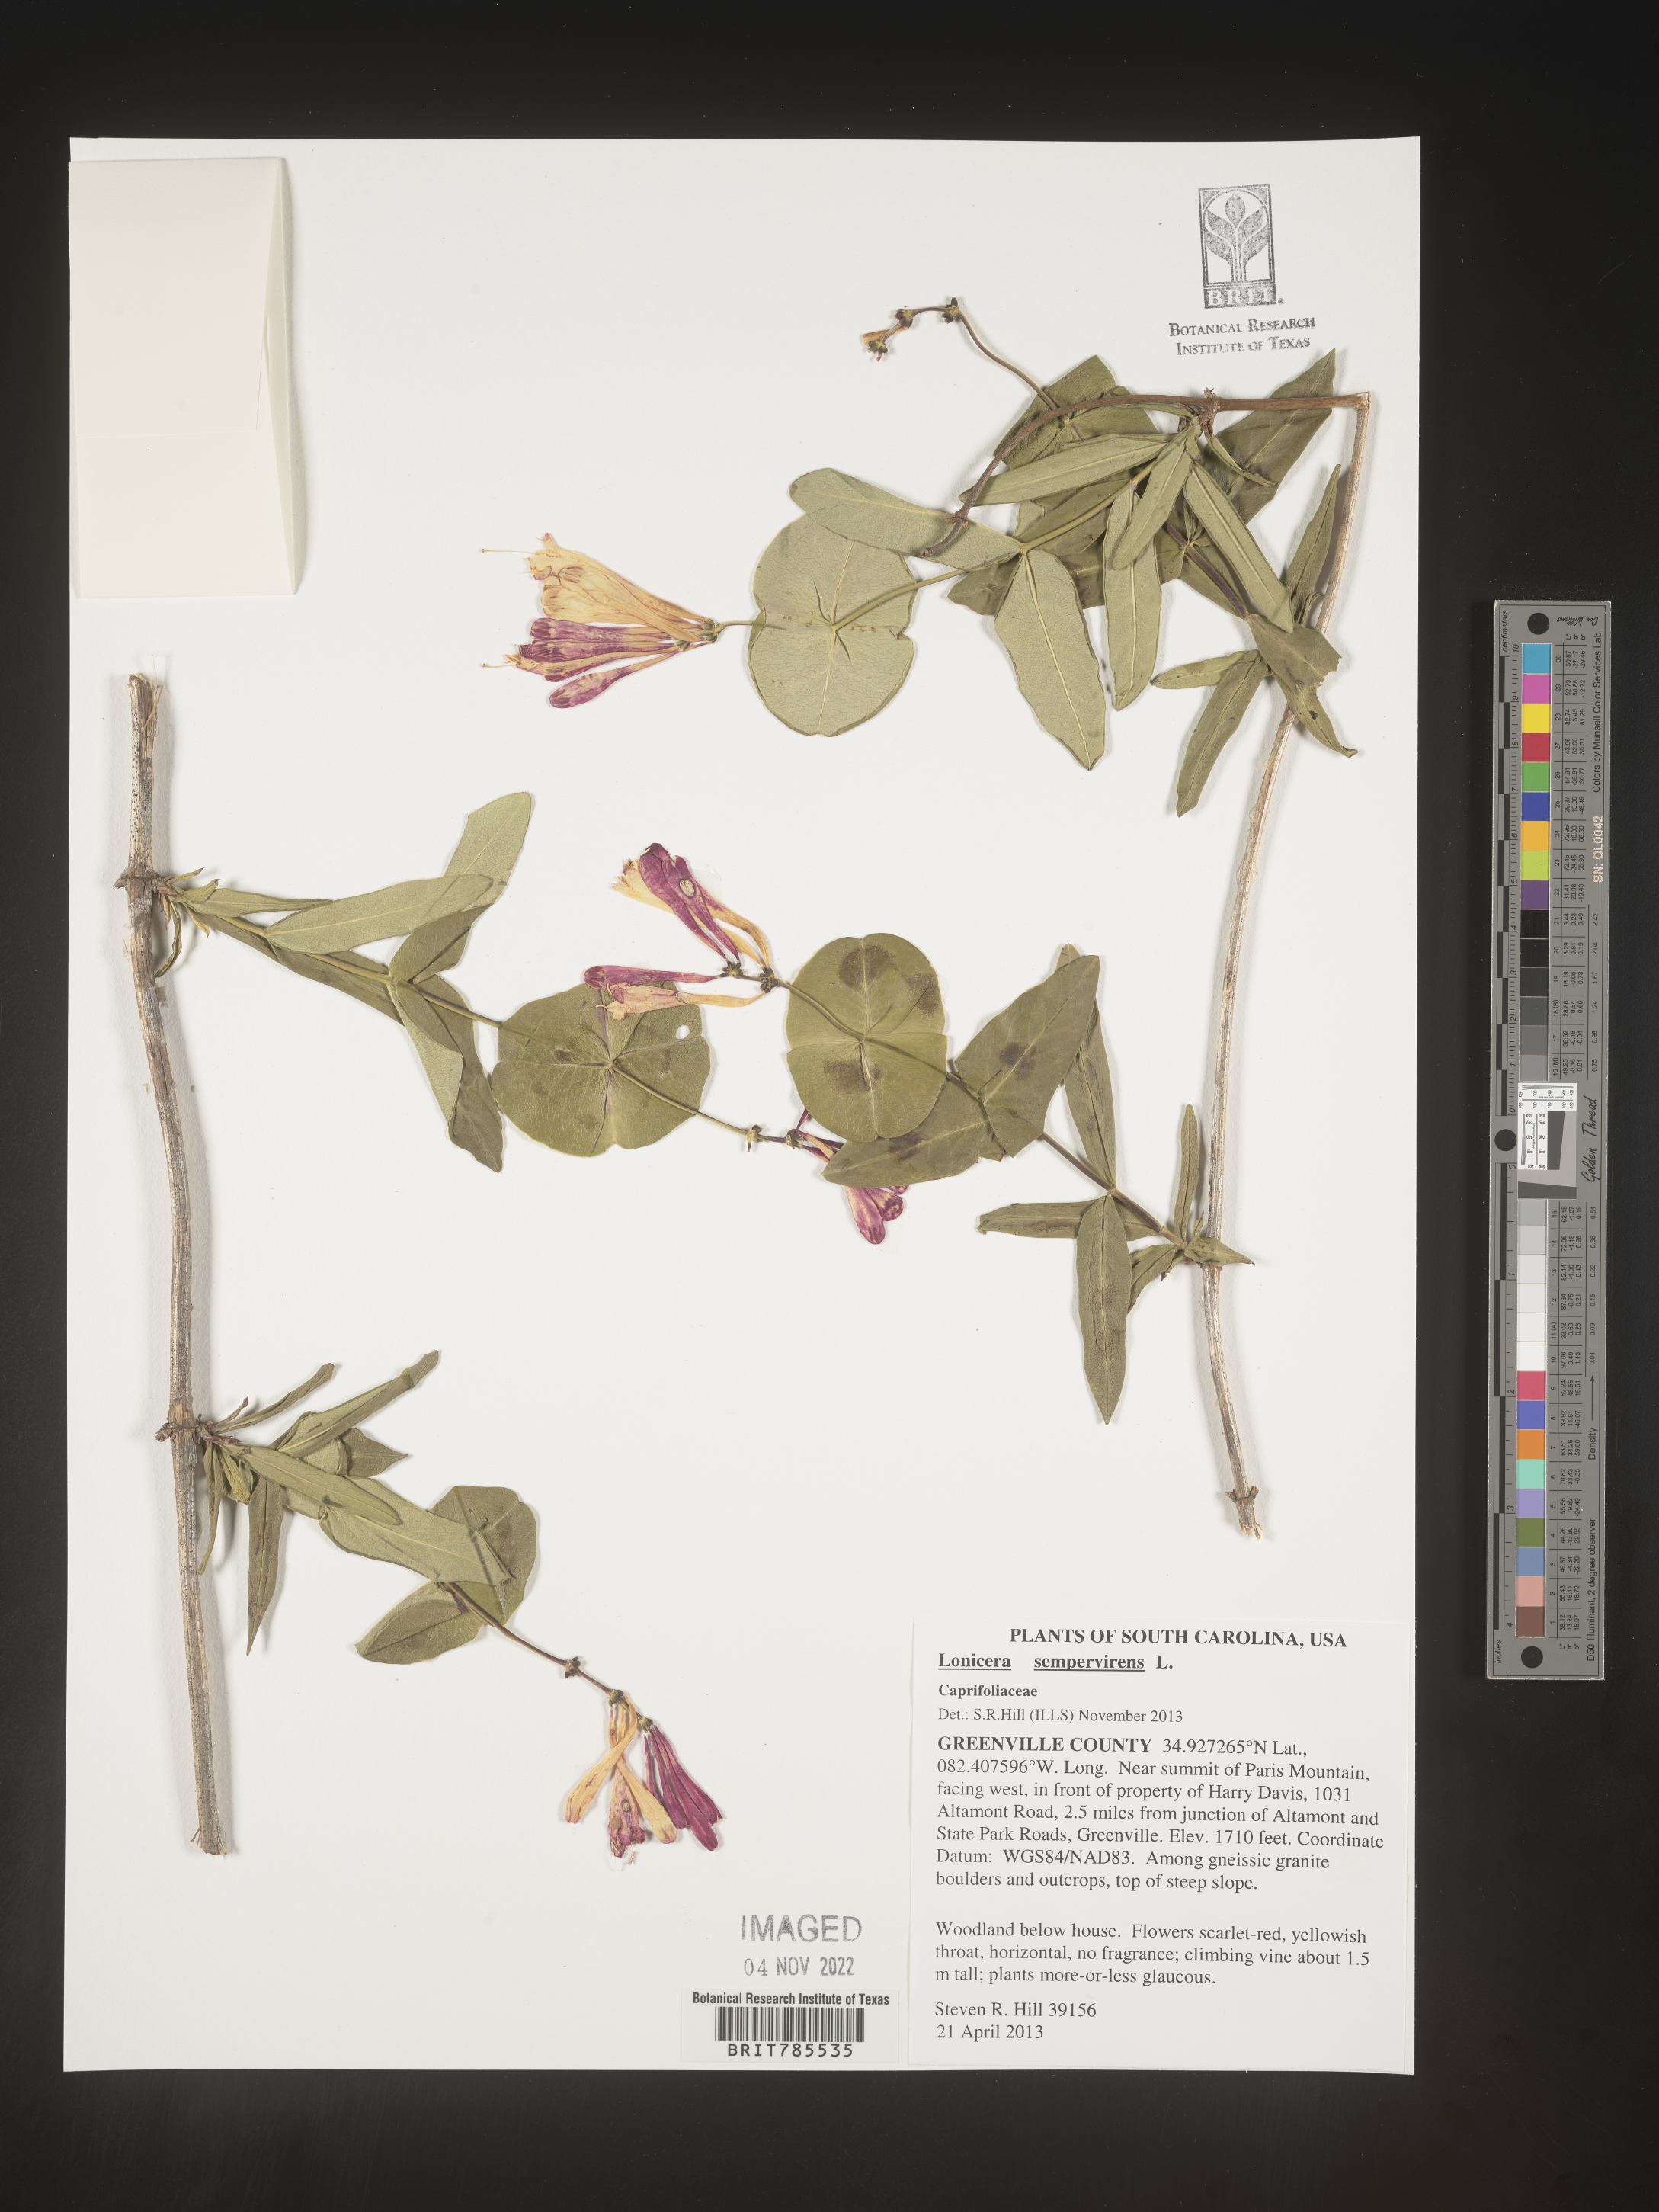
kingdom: Plantae
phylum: Tracheophyta
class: Magnoliopsida
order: Dipsacales
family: Caprifoliaceae
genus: Lonicera
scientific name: Lonicera sempervirens
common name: Coral honeysuckle
